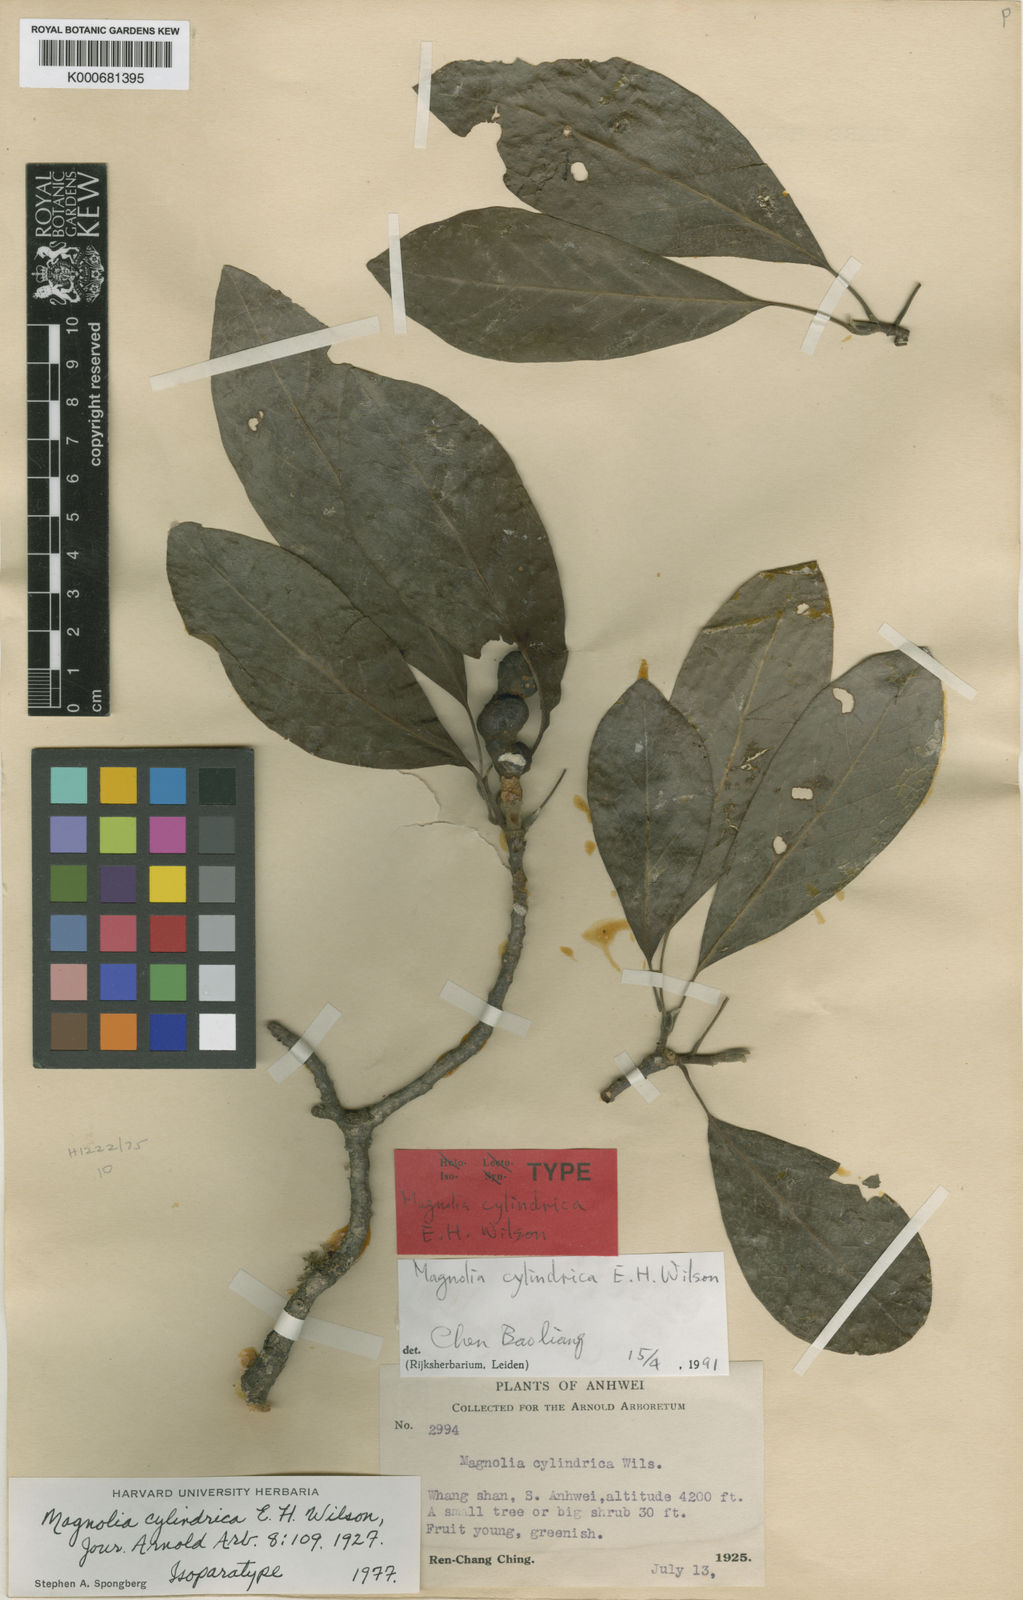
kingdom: Plantae
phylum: Tracheophyta
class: Magnoliopsida
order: Magnoliales
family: Magnoliaceae
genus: Magnolia
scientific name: Magnolia cylindrica
